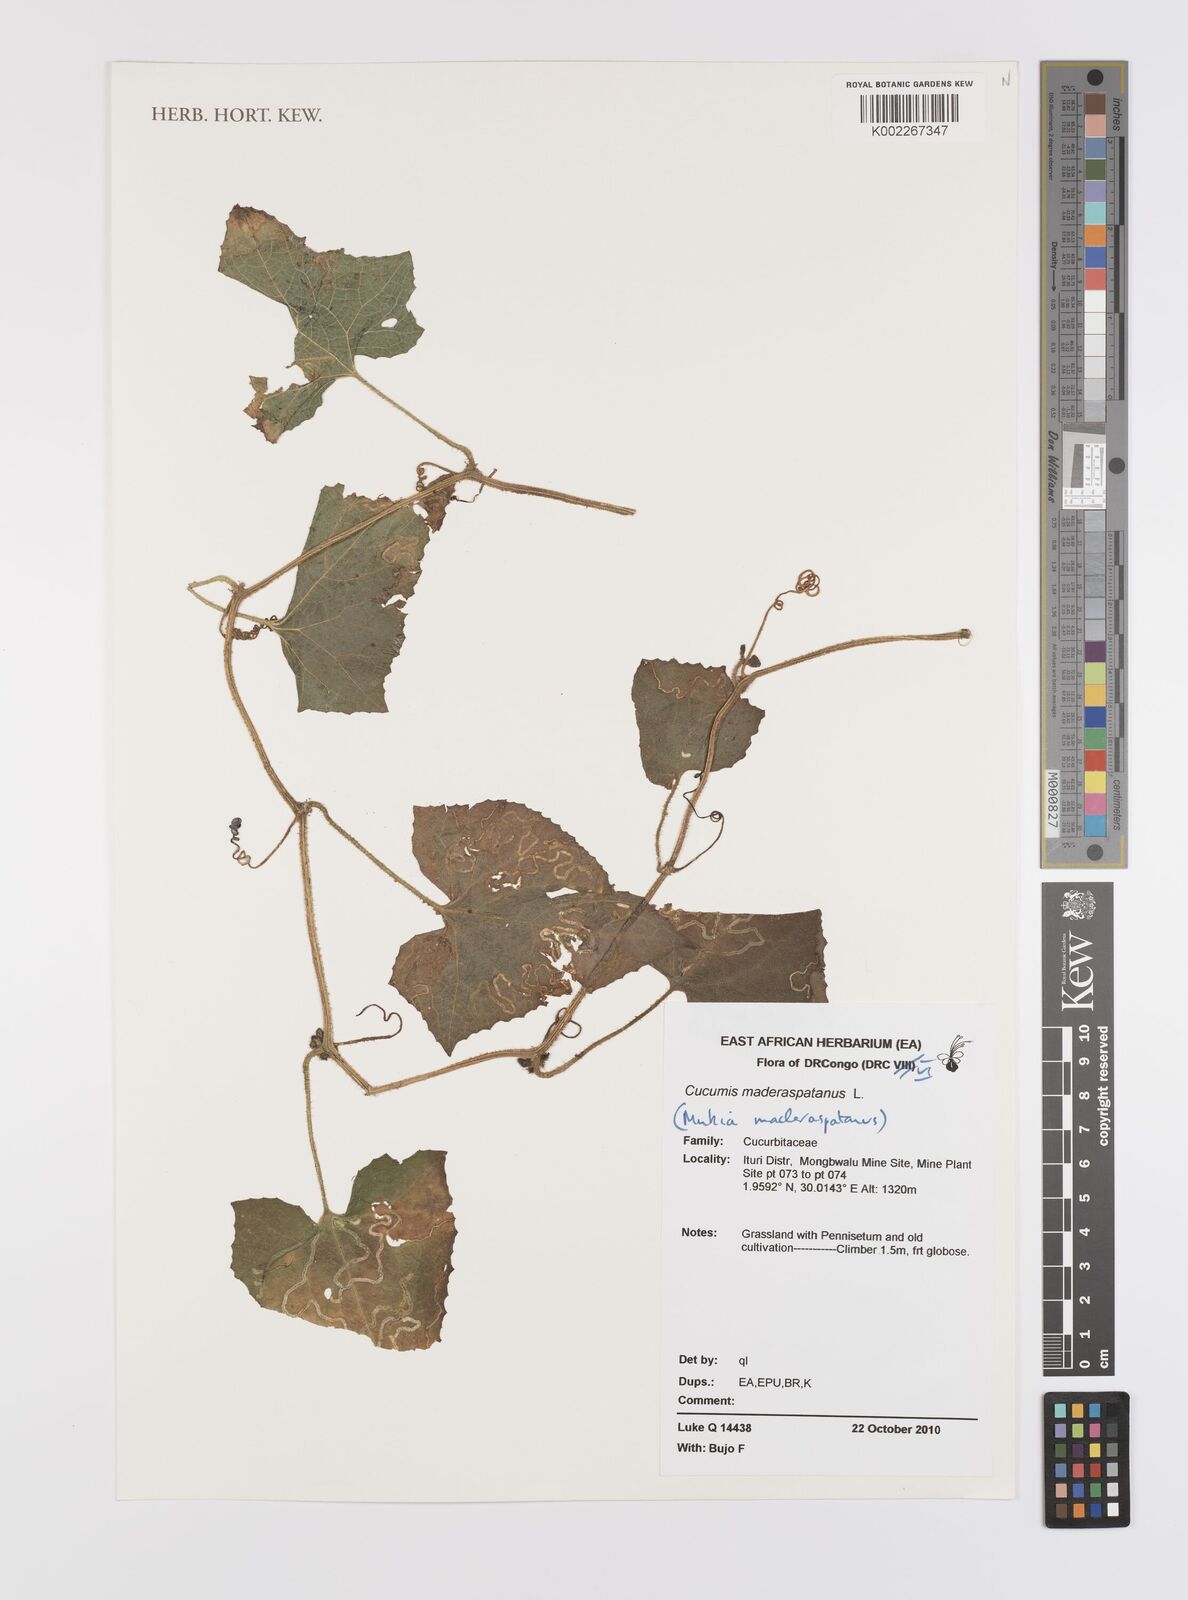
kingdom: Plantae
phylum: Tracheophyta
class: Magnoliopsida
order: Cucurbitales
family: Cucurbitaceae
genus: Cucumis
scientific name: Cucumis maderaspatanus
